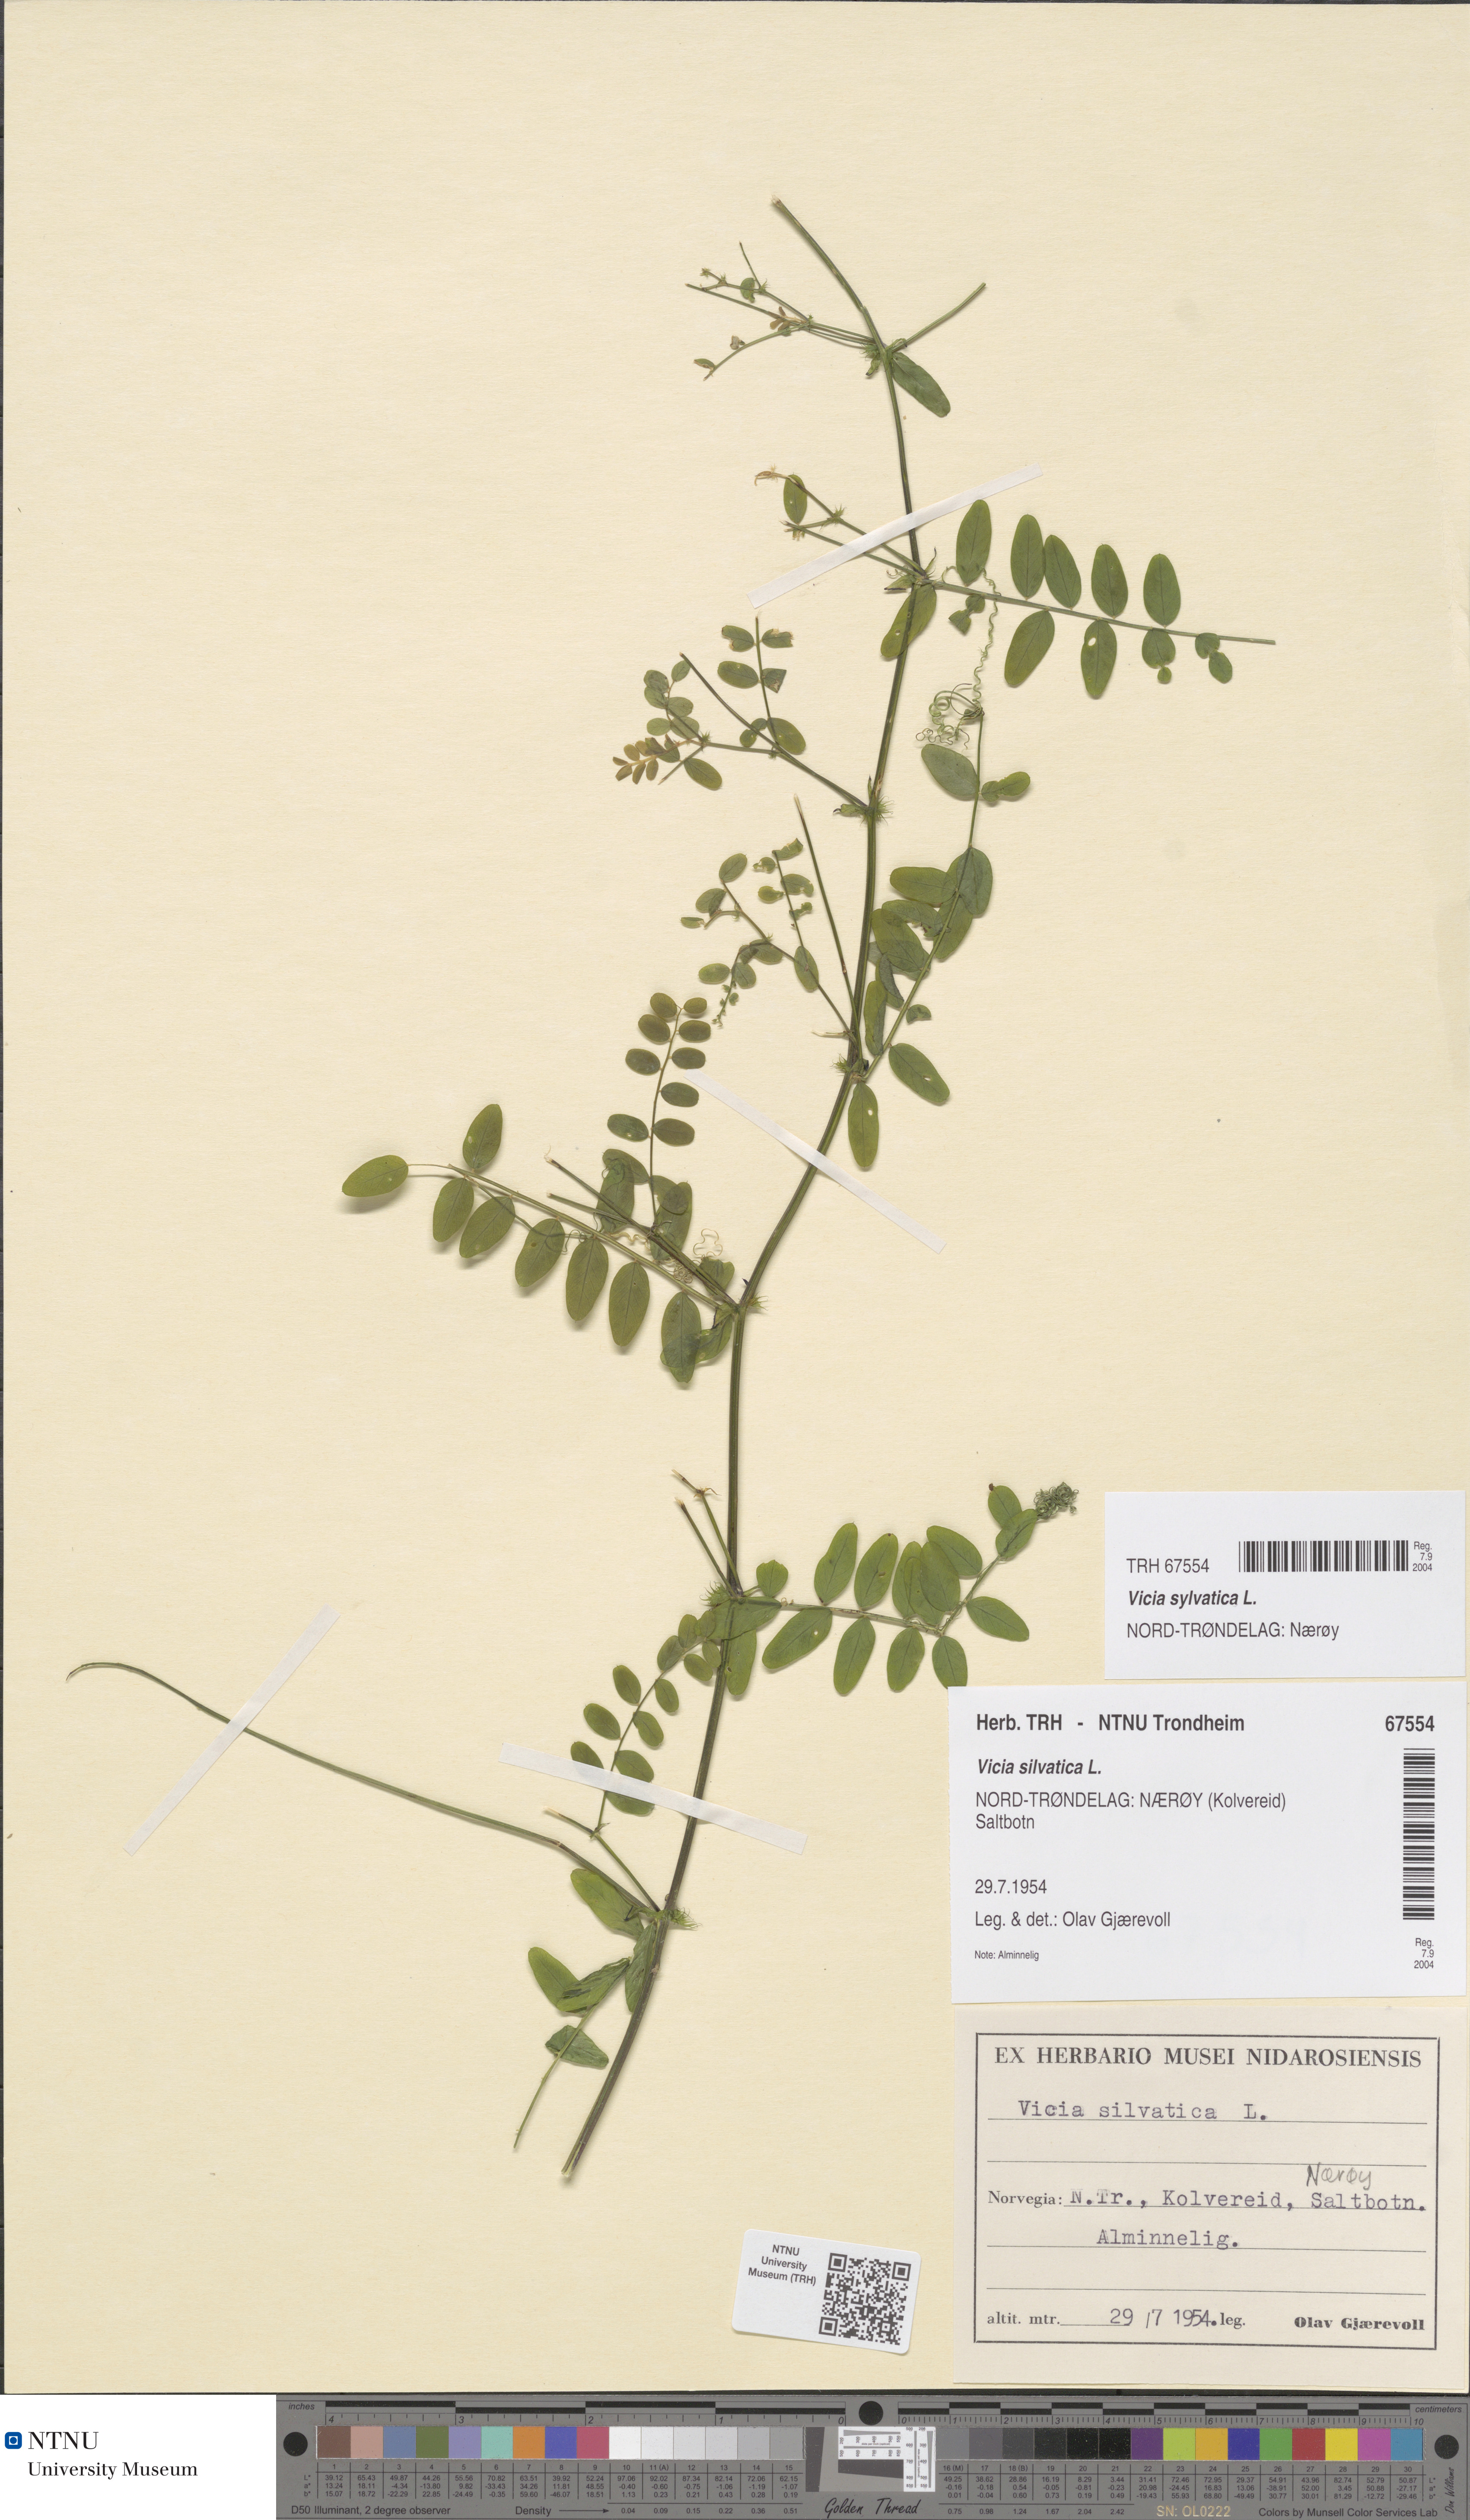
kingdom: Plantae
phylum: Tracheophyta
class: Magnoliopsida
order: Fabales
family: Fabaceae
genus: Vicia
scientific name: Vicia sylvatica
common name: Wood vetch
